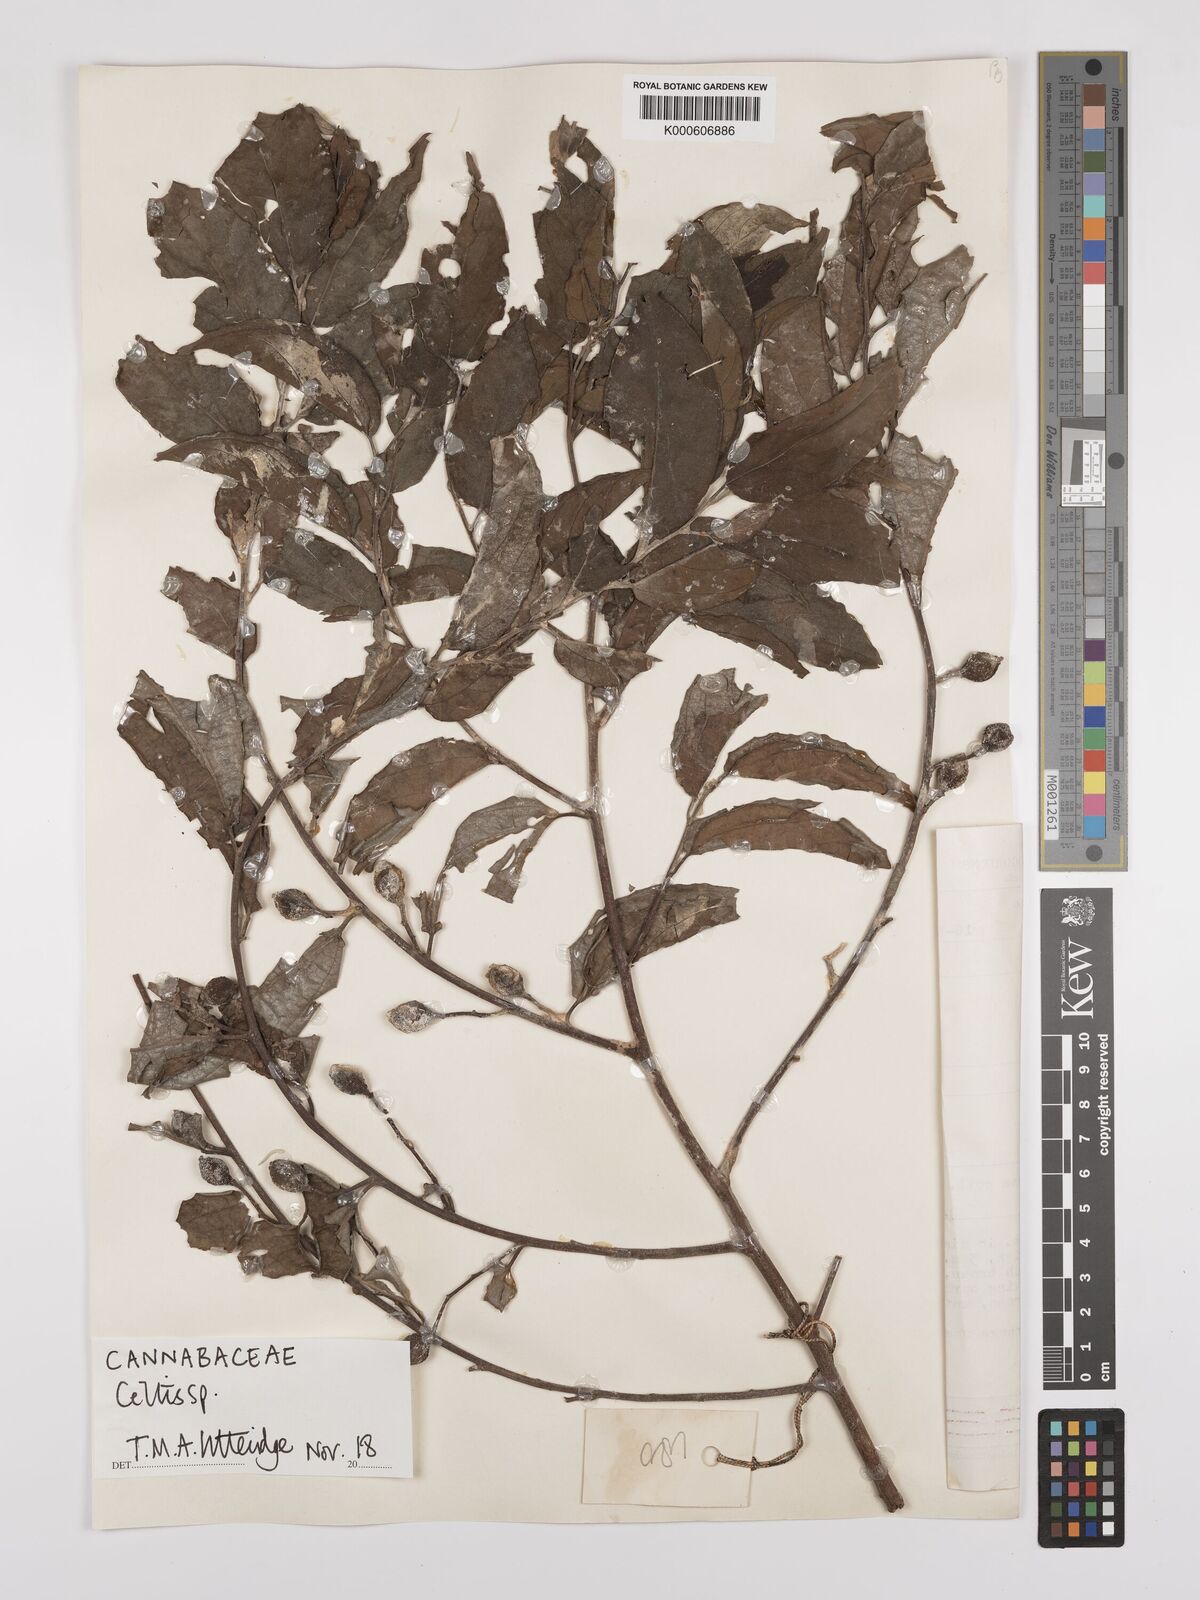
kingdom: Plantae
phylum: Tracheophyta
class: Magnoliopsida
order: Rosales
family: Cannabaceae
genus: Celtis
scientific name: Celtis
